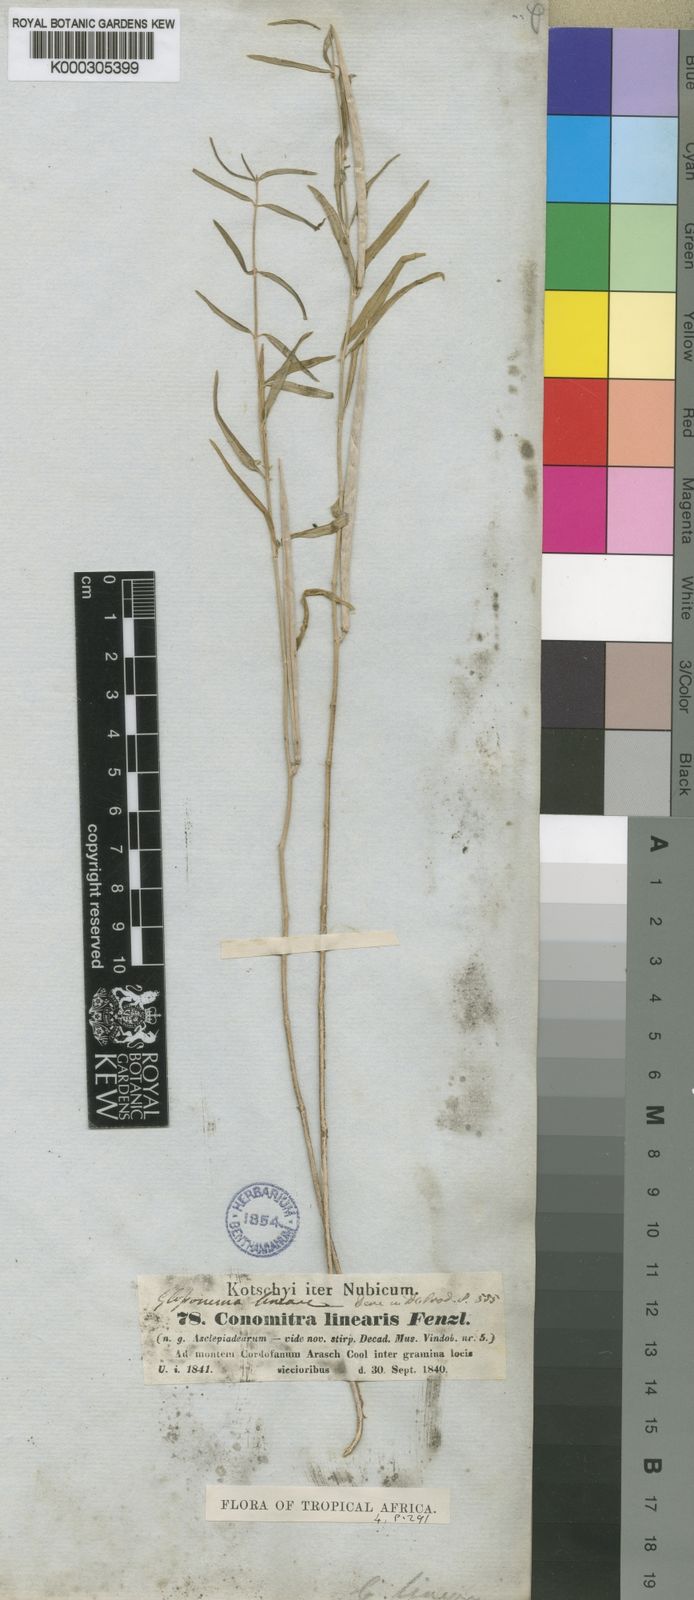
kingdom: Plantae
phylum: Tracheophyta
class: Magnoliopsida
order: Gentianales
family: Apocynaceae
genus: Conomitra
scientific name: Conomitra linearis
